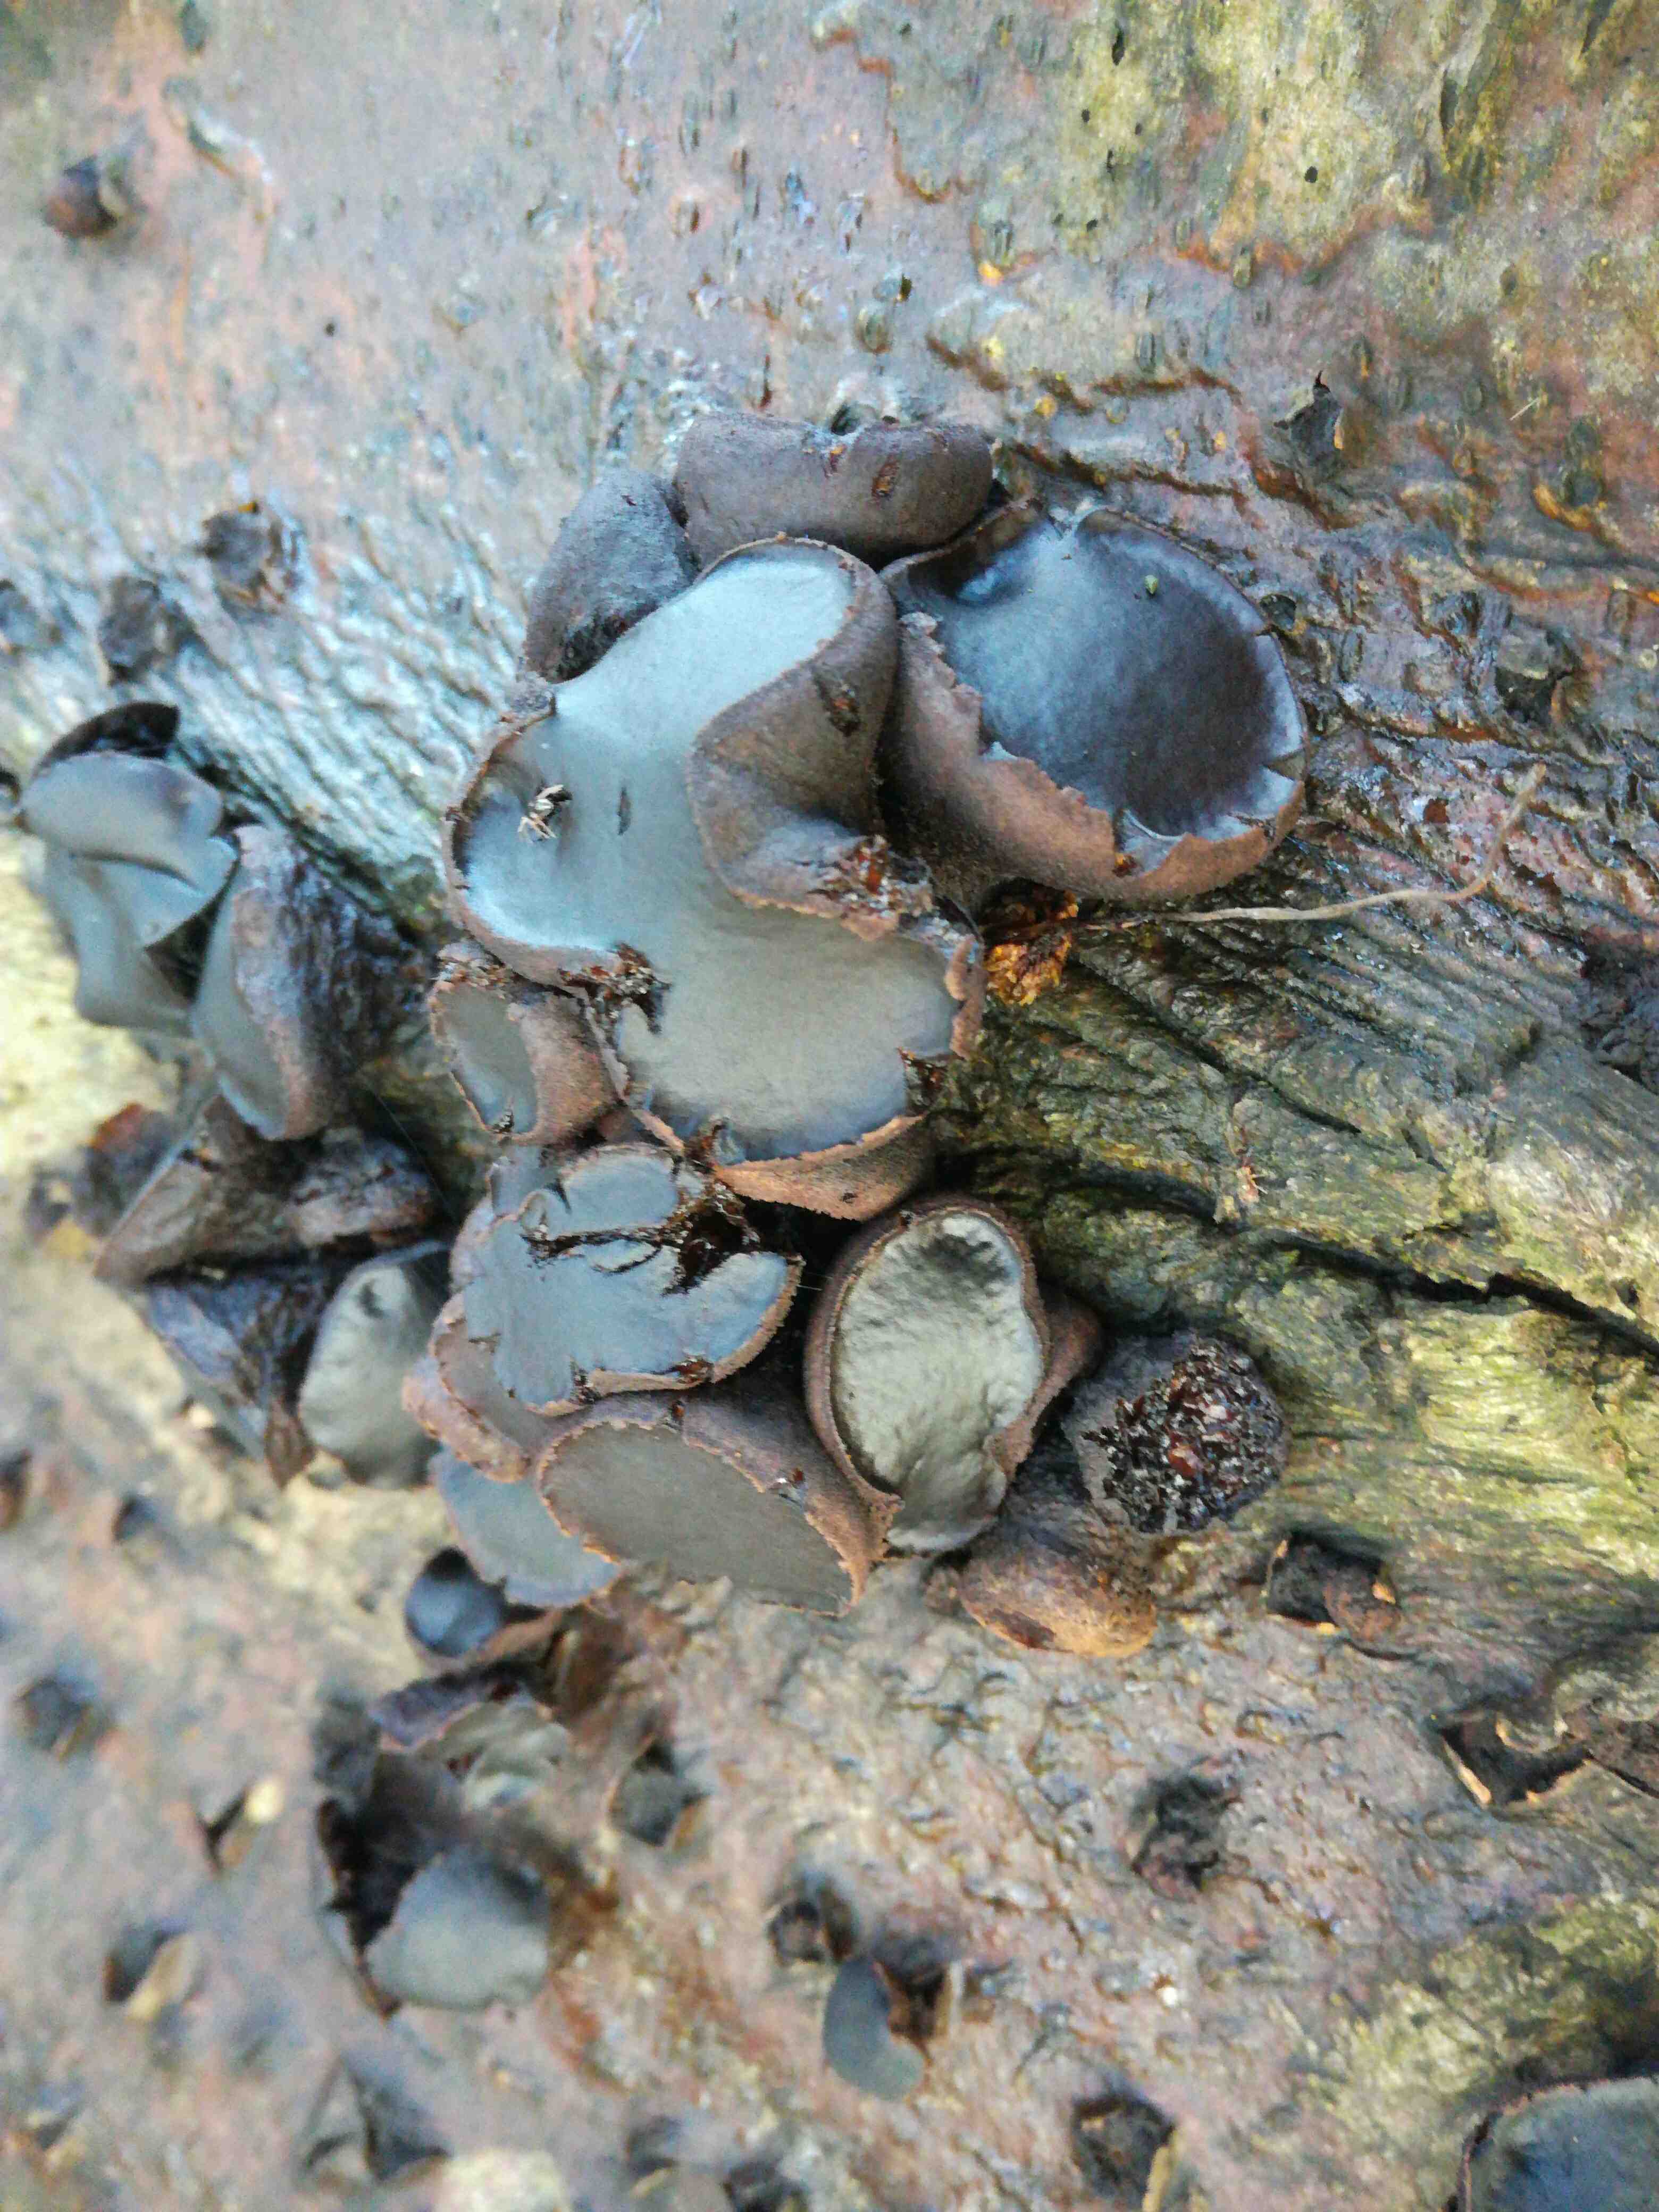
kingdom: Fungi
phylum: Ascomycota
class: Leotiomycetes
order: Phacidiales
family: Phacidiaceae
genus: Bulgaria
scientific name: Bulgaria inquinans
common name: afsmittende topsvamp
